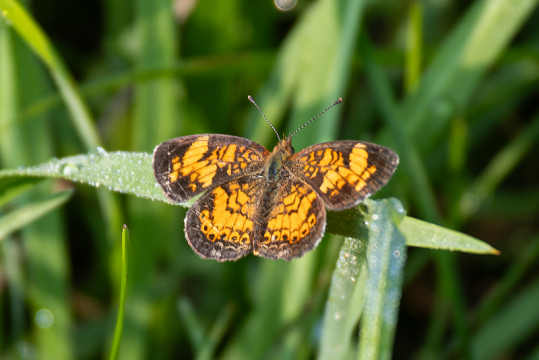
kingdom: Animalia
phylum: Arthropoda
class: Insecta
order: Lepidoptera
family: Nymphalidae
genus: Phyciodes
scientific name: Phyciodes tharos
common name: Pearl Crescent
